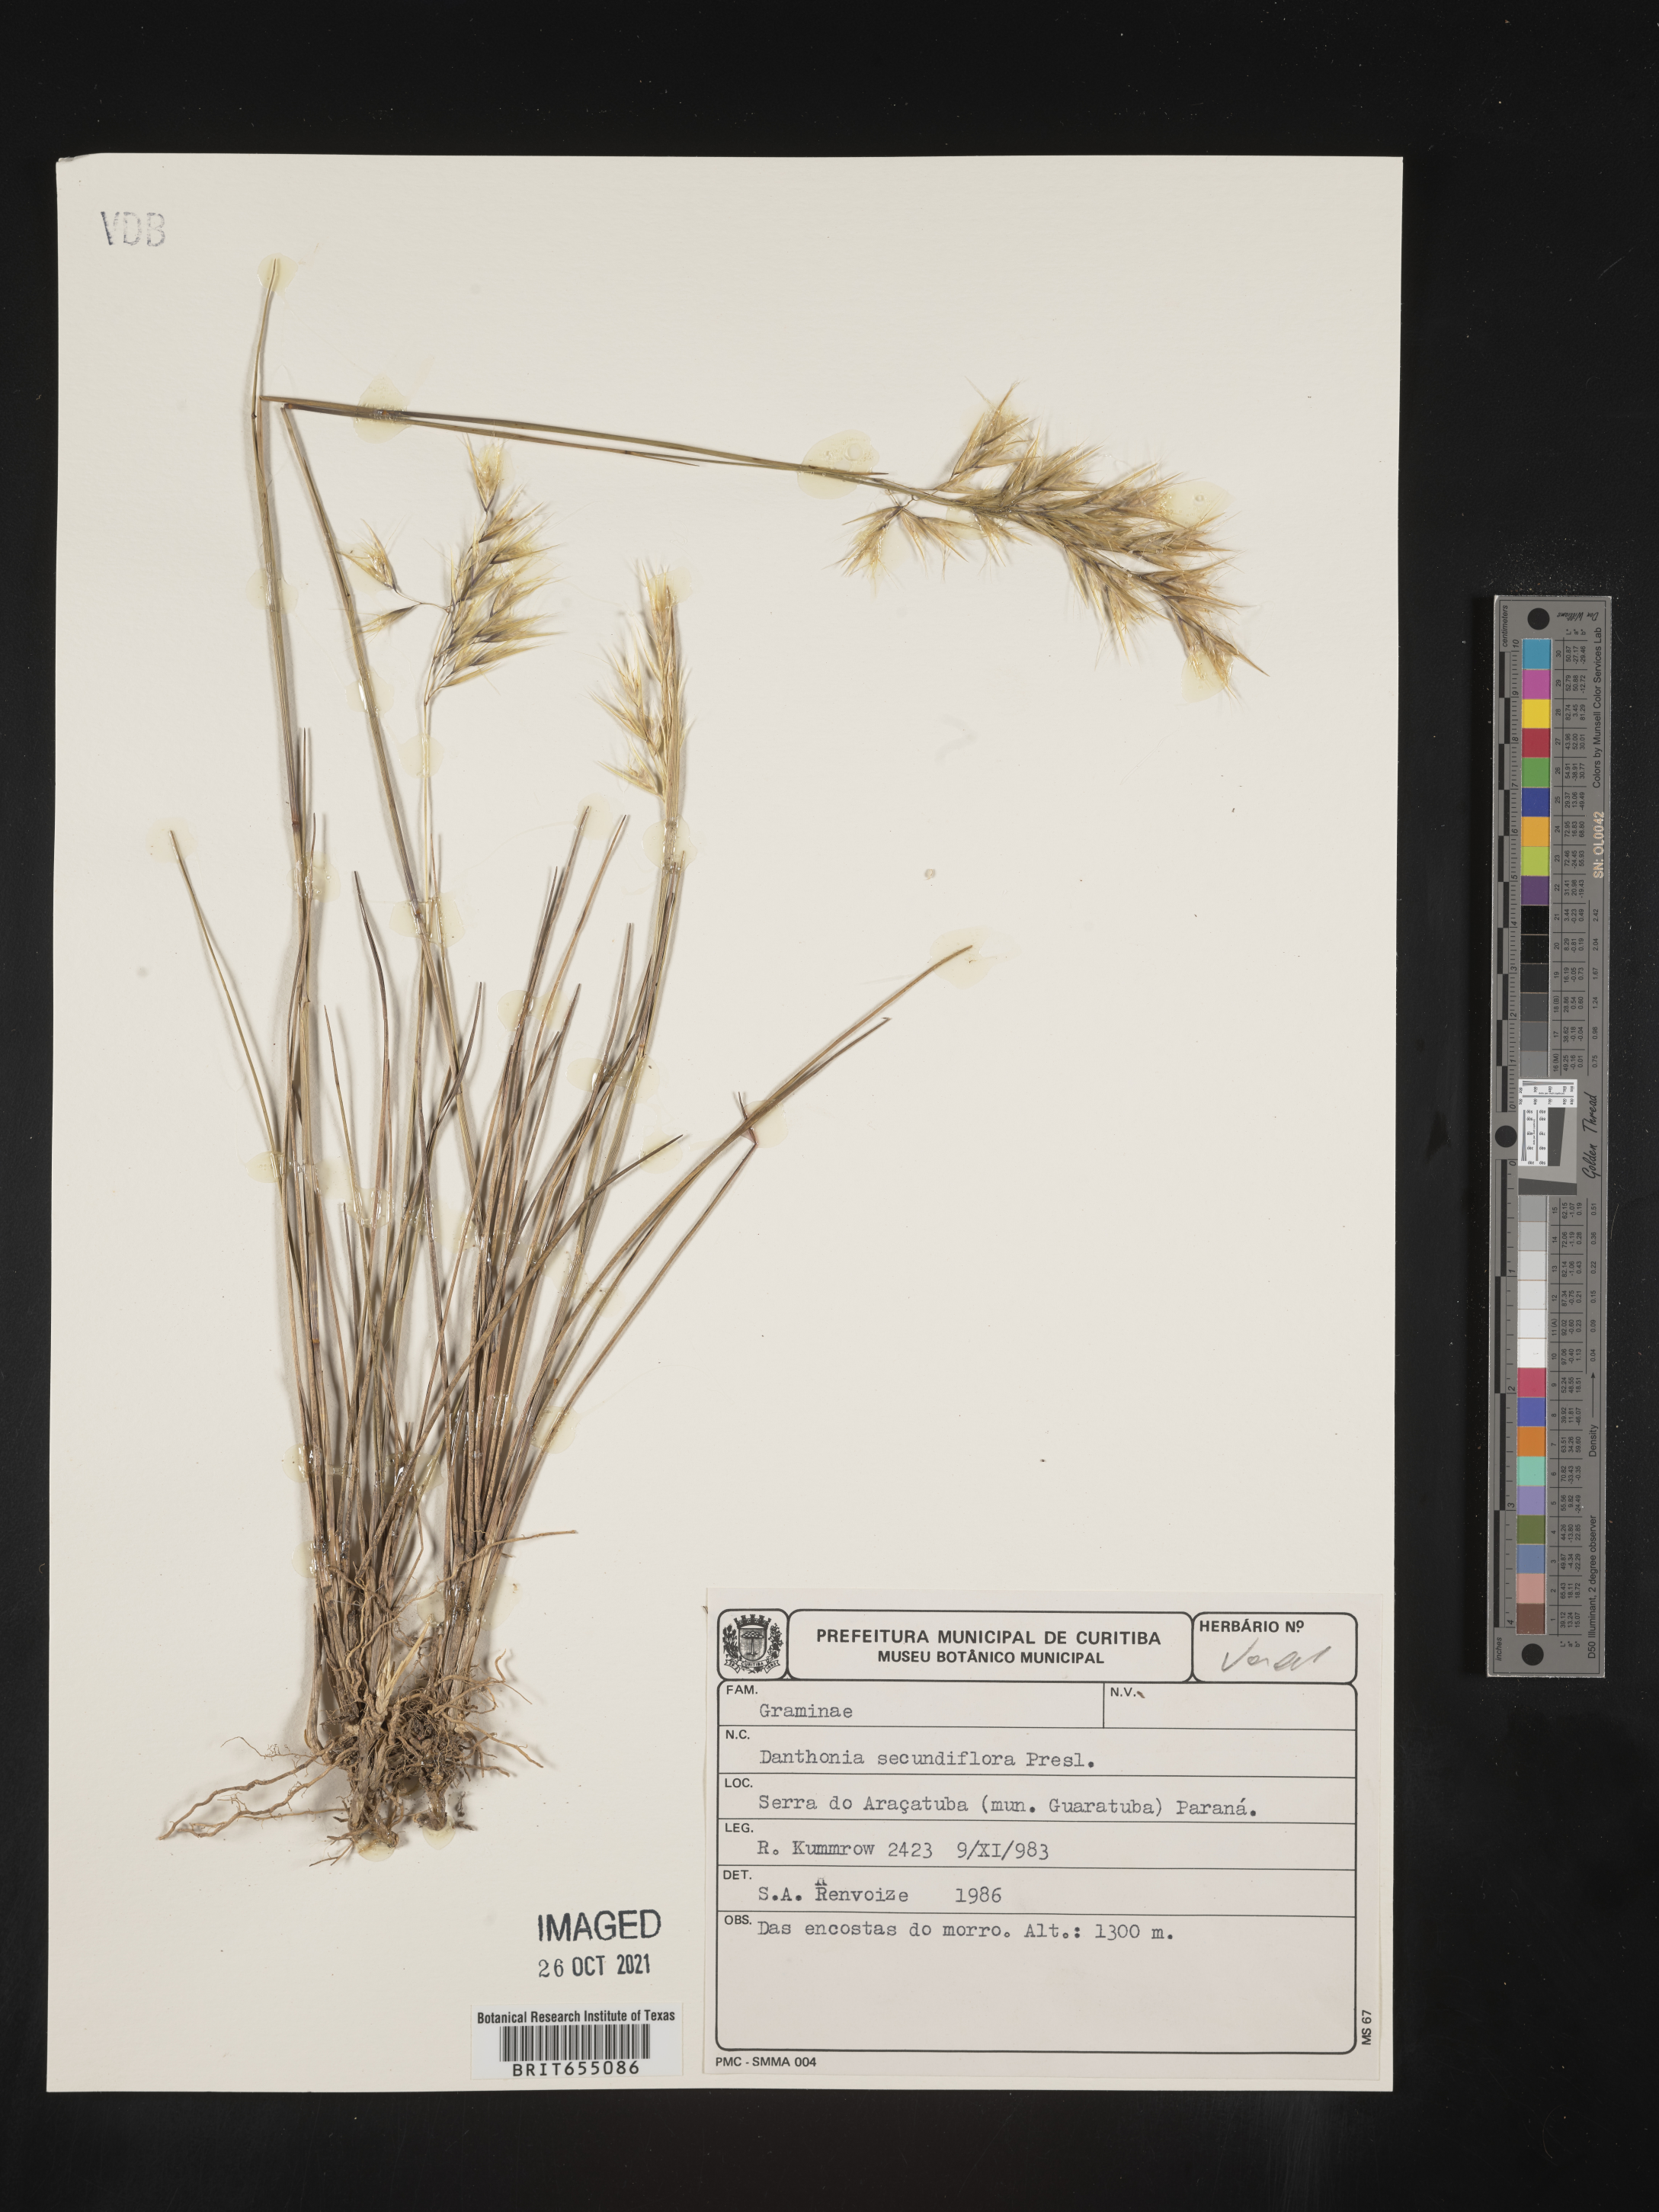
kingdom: Plantae
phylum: Tracheophyta
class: Liliopsida
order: Poales
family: Poaceae
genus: Danthonia
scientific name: Danthonia
